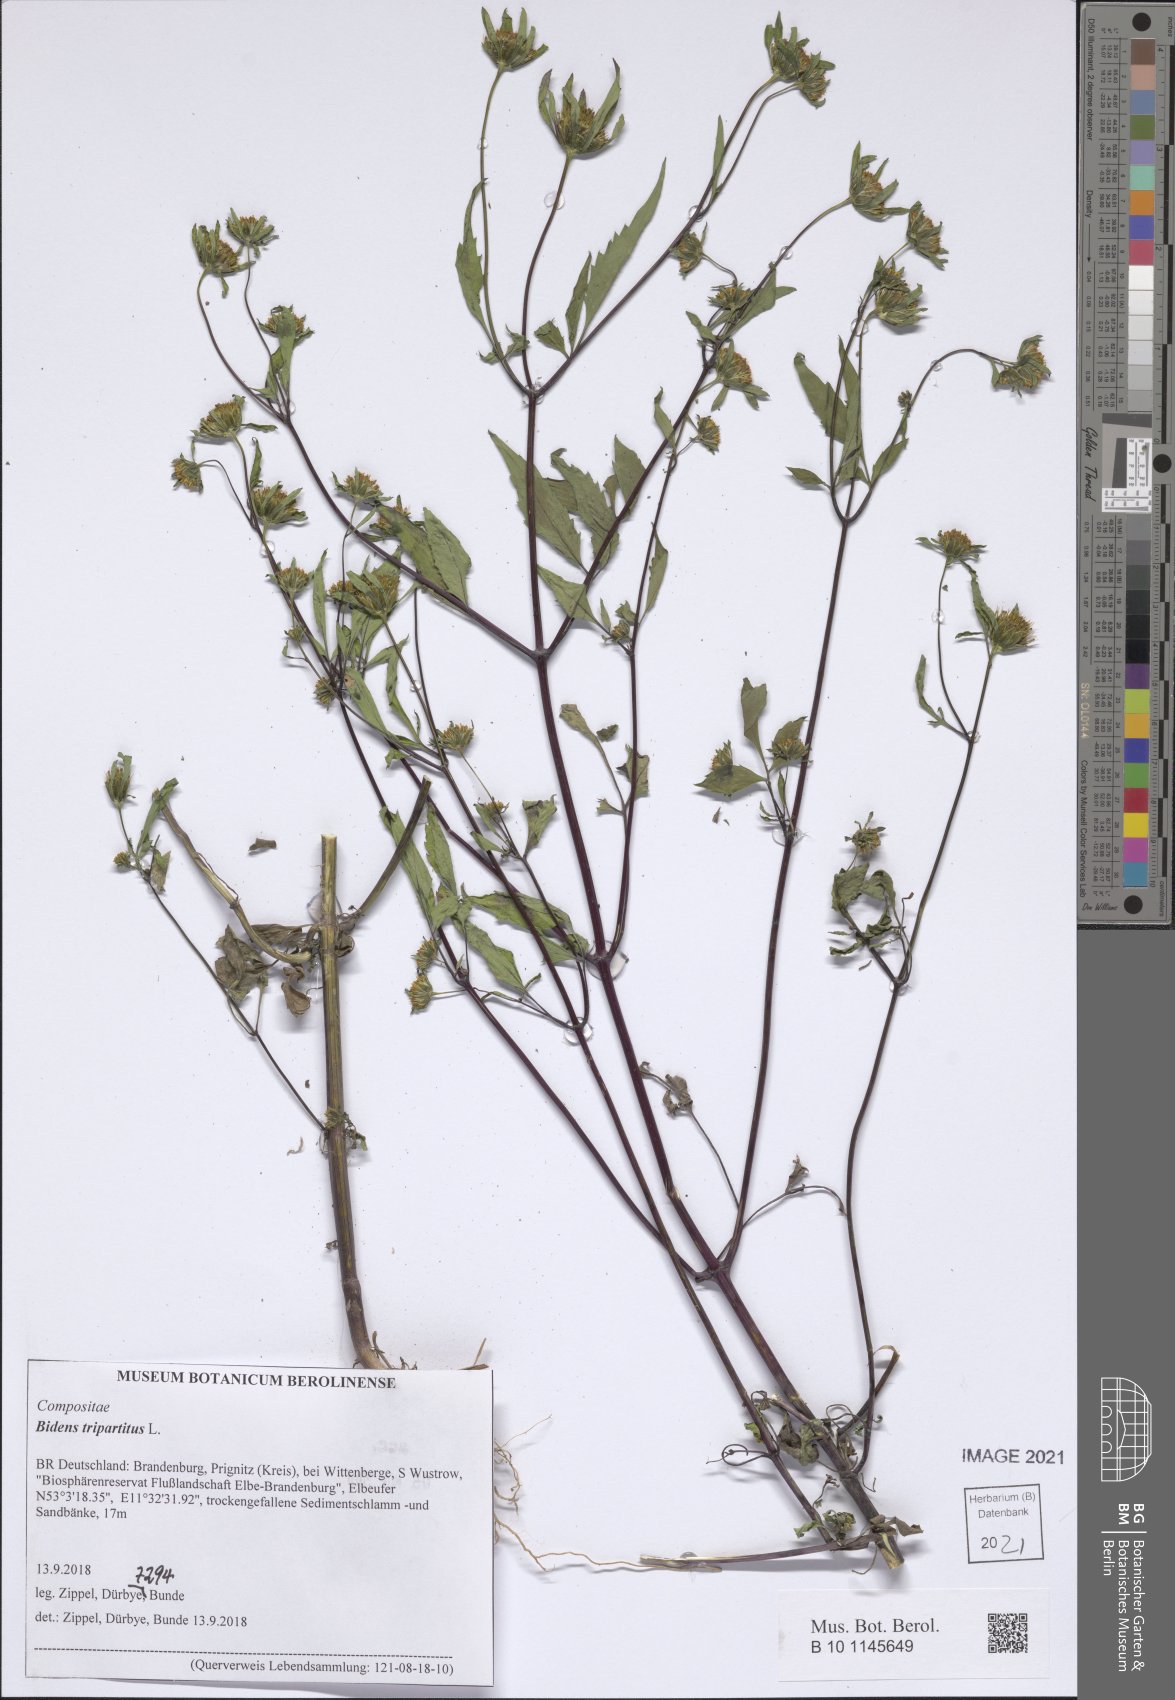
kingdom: Plantae
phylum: Tracheophyta
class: Magnoliopsida
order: Asterales
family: Asteraceae
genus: Bidens
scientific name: Bidens tripartita
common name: Trifid bur-marigold
